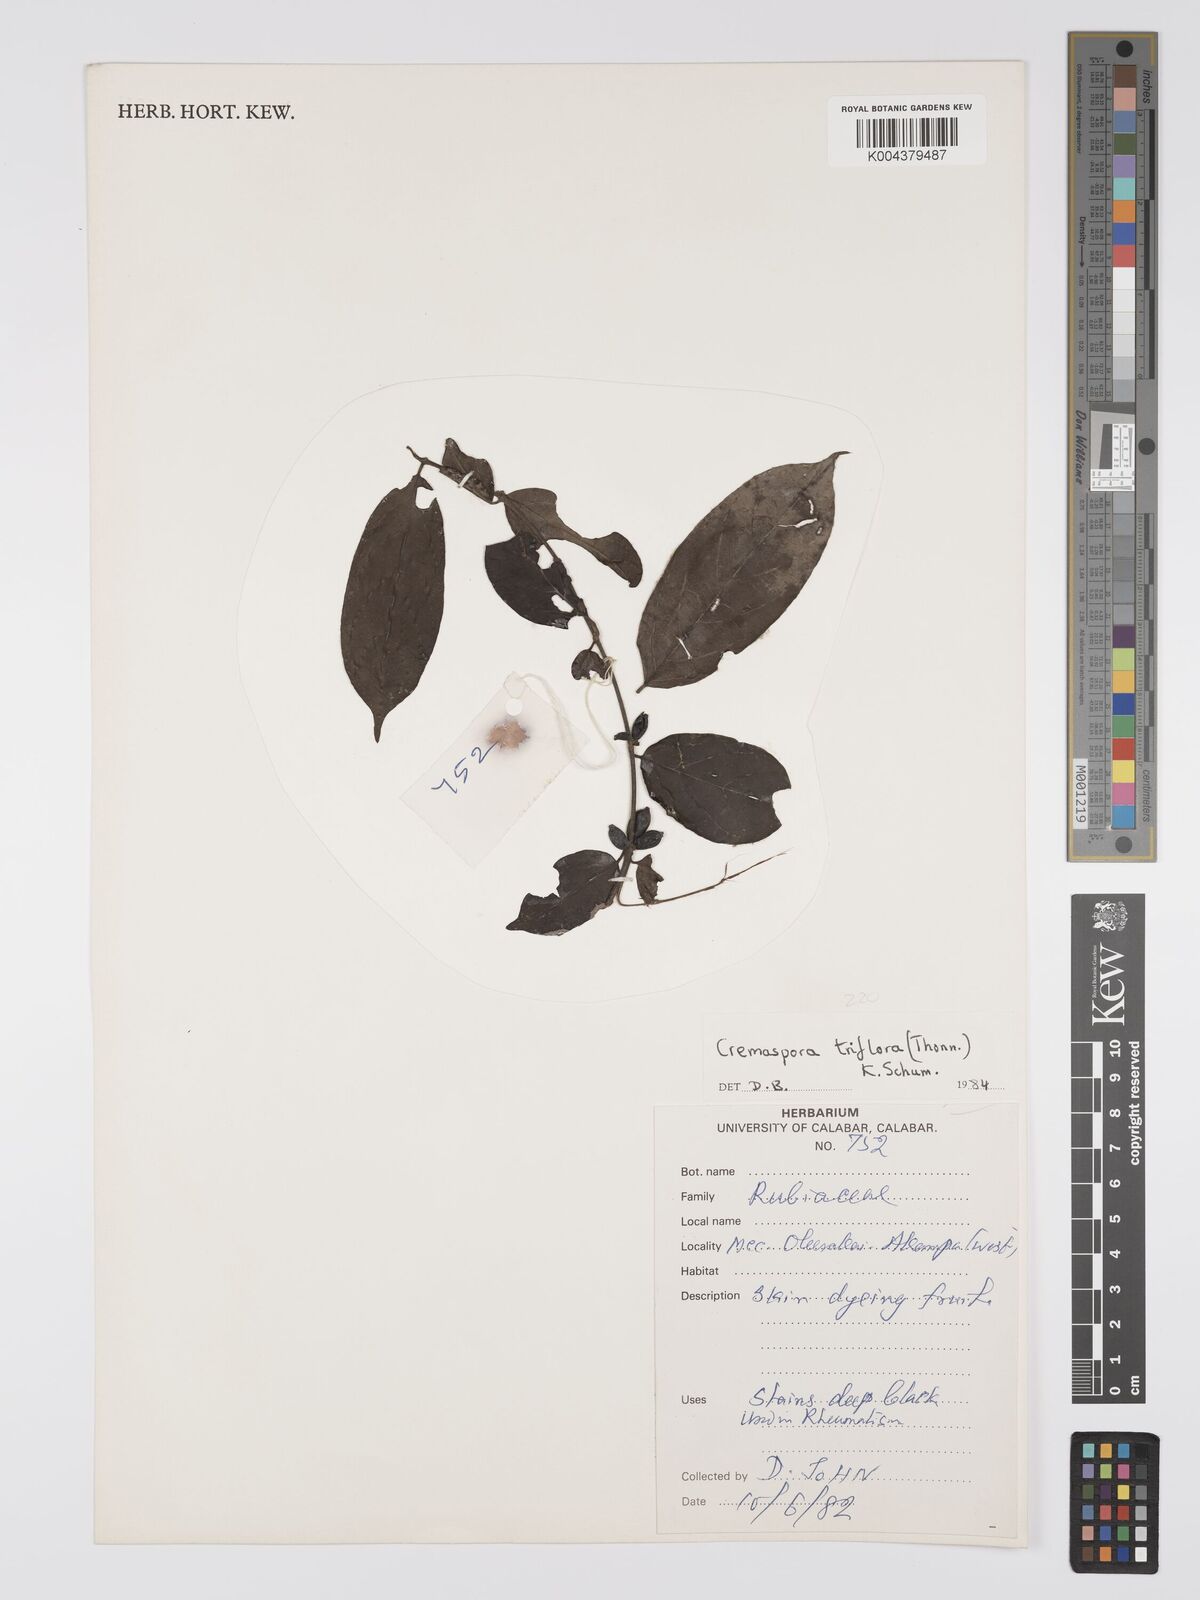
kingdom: Plantae
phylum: Tracheophyta
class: Magnoliopsida
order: Gentianales
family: Rubiaceae
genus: Cremaspora
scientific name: Cremaspora triflora
